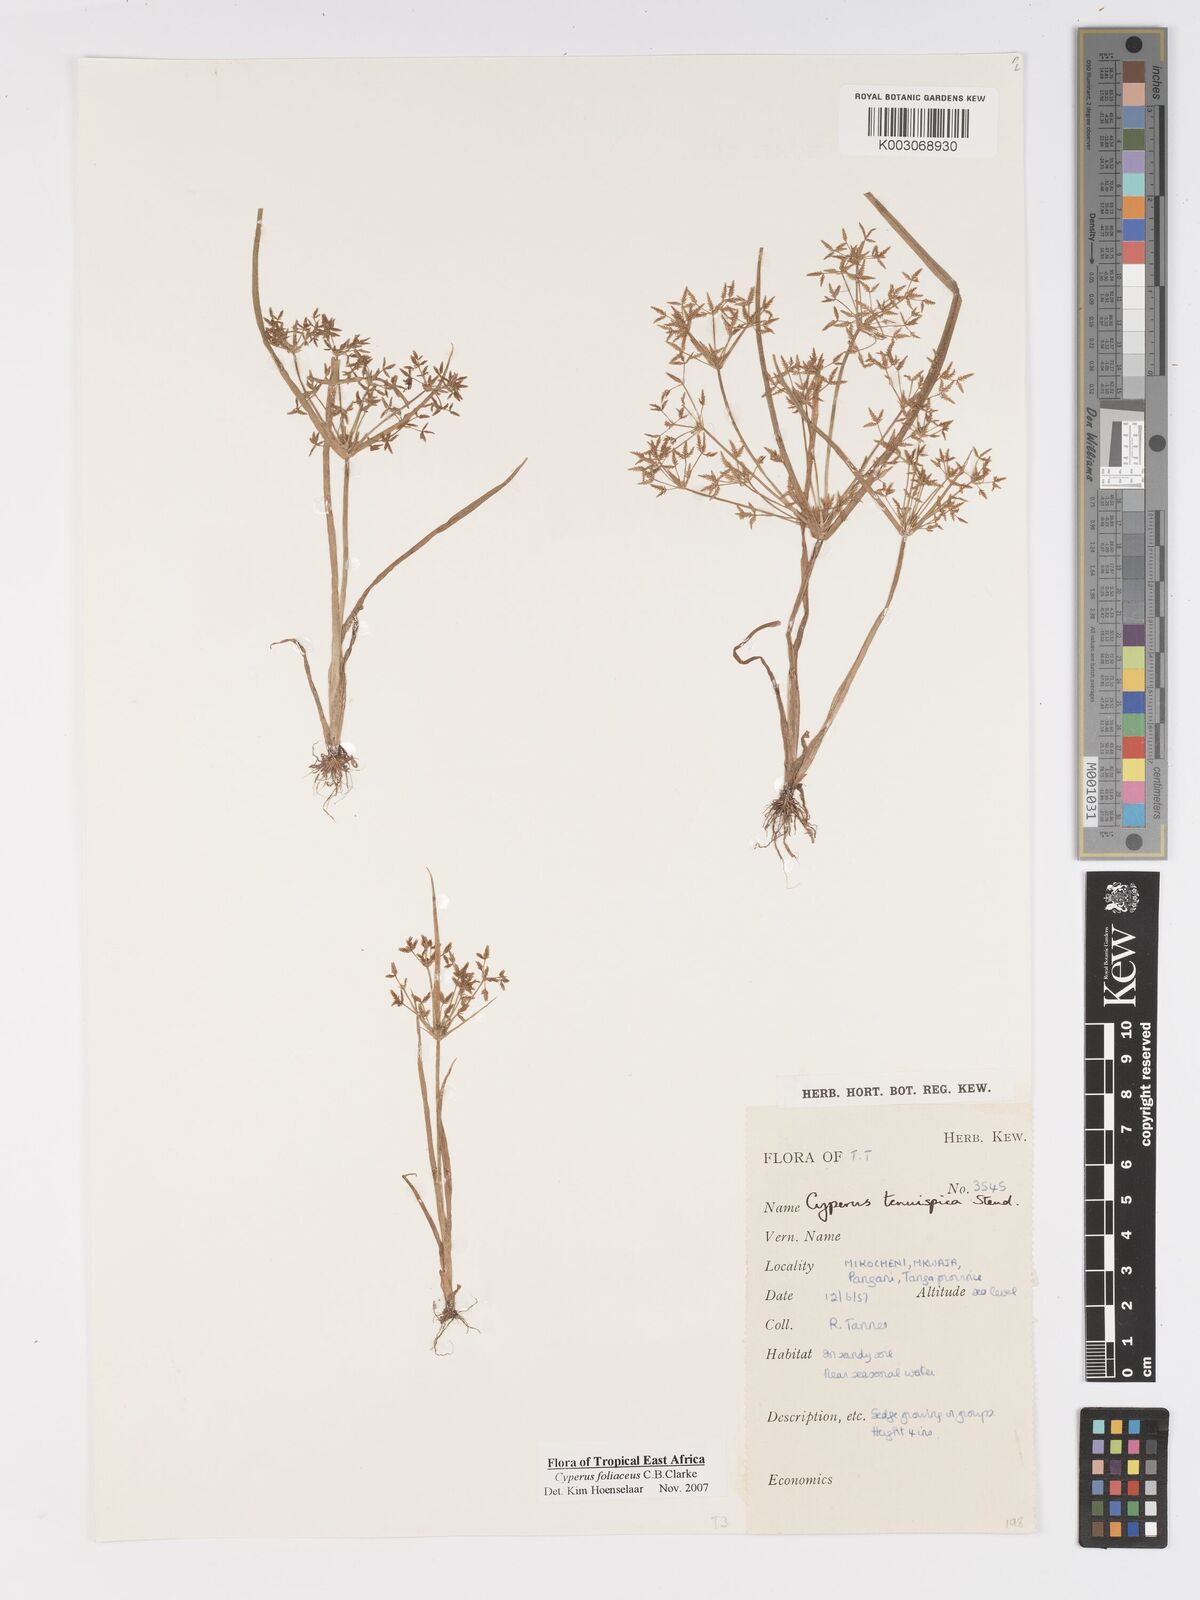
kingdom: Plantae
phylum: Tracheophyta
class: Liliopsida
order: Poales
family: Cyperaceae
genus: Cyperus
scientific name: Cyperus foliaceus
